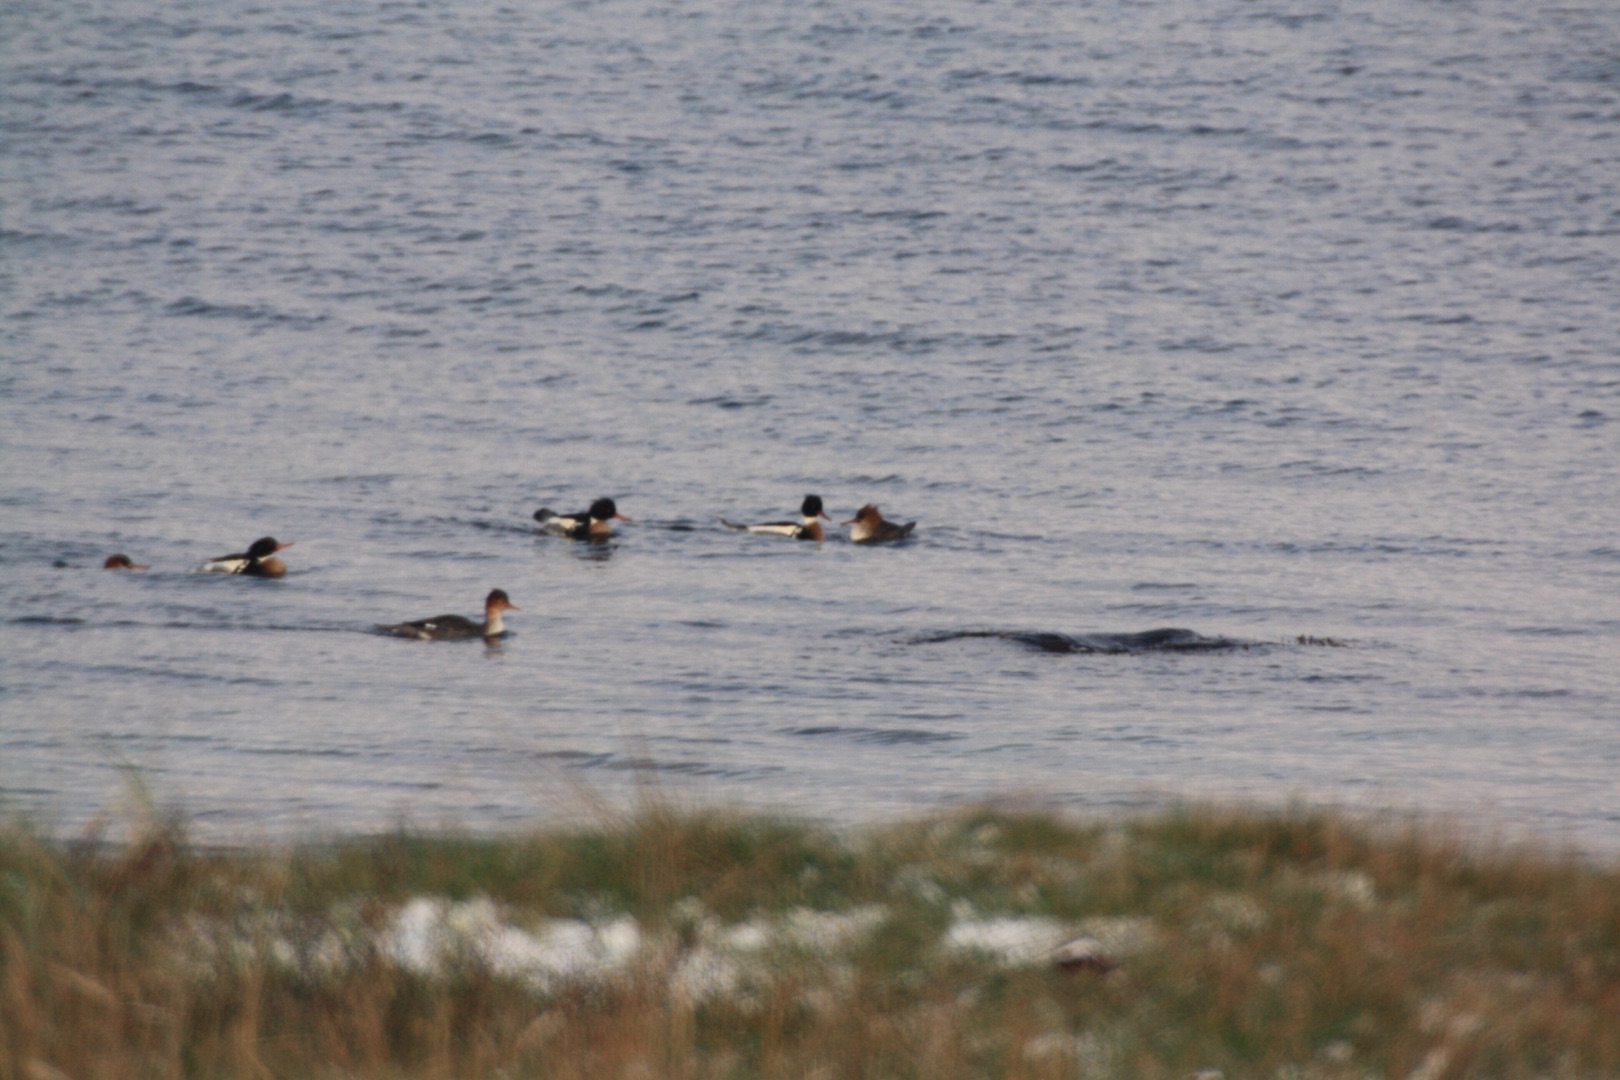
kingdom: Animalia
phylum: Chordata
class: Aves
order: Anseriformes
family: Anatidae
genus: Mergus
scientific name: Mergus serrator
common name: Toppet skallesluger
